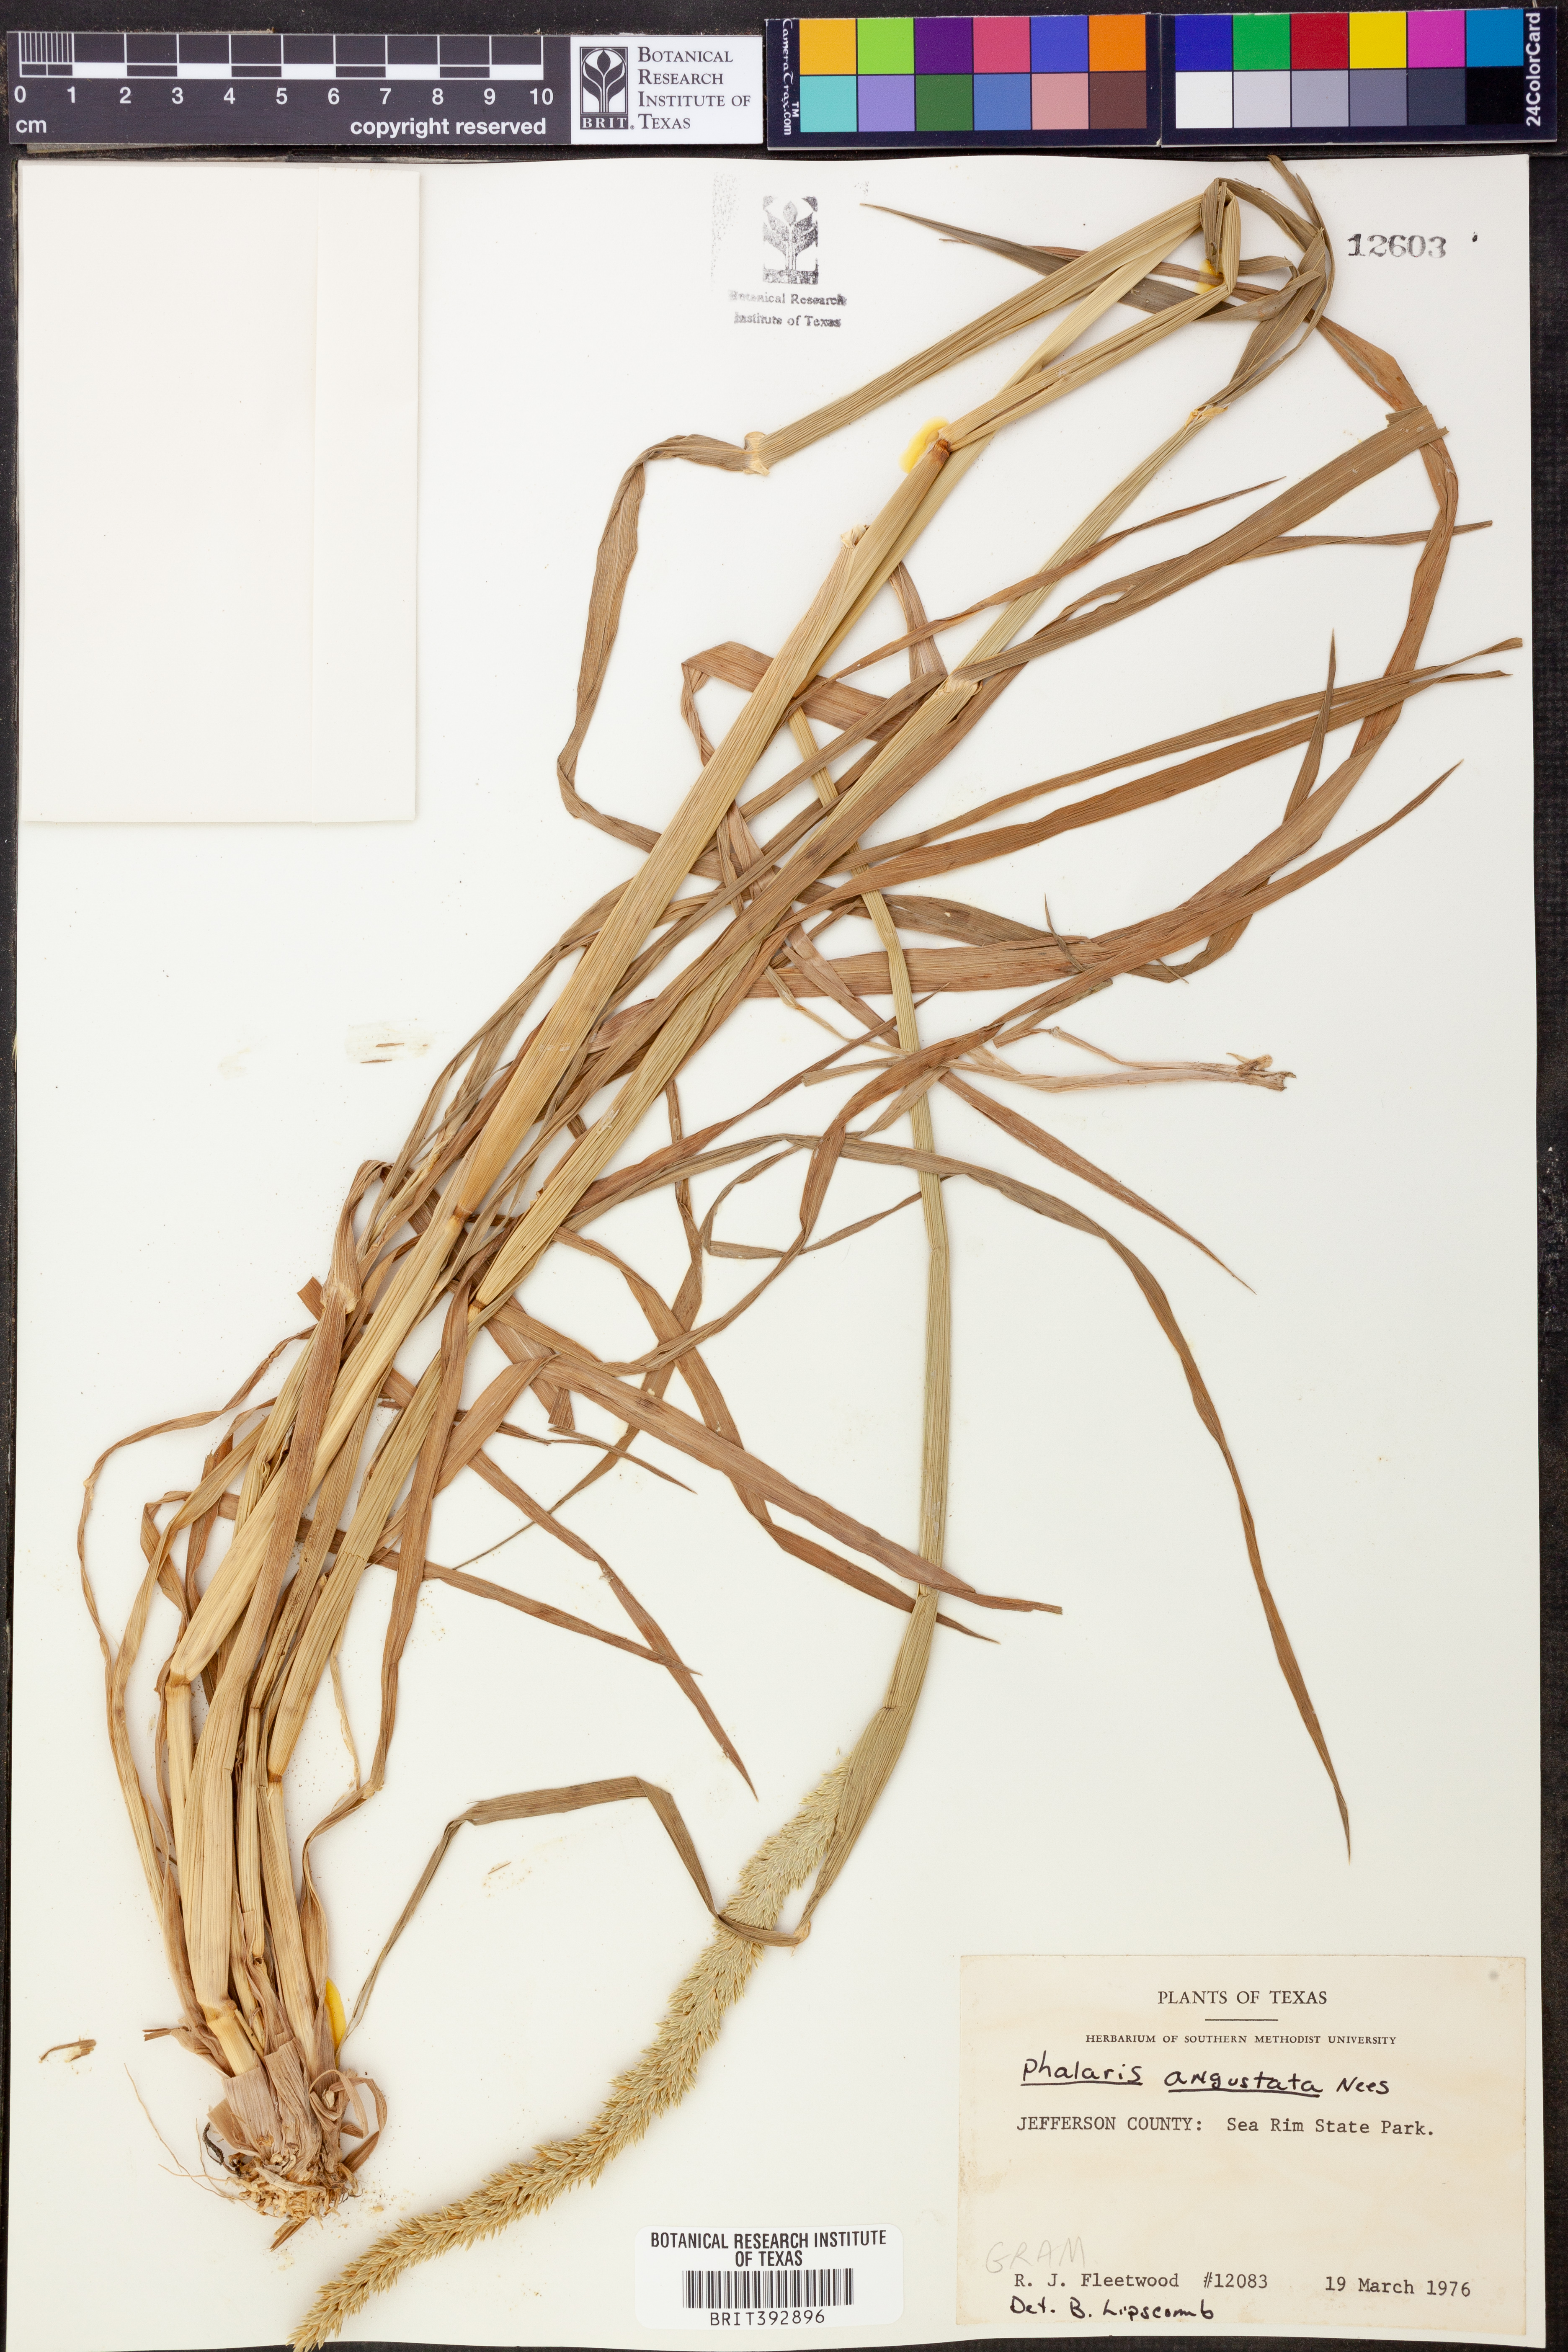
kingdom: Plantae
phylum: Tracheophyta
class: Liliopsida
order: Poales
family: Poaceae
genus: Phalaris
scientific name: Phalaris angusta
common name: Narrow canary grass
